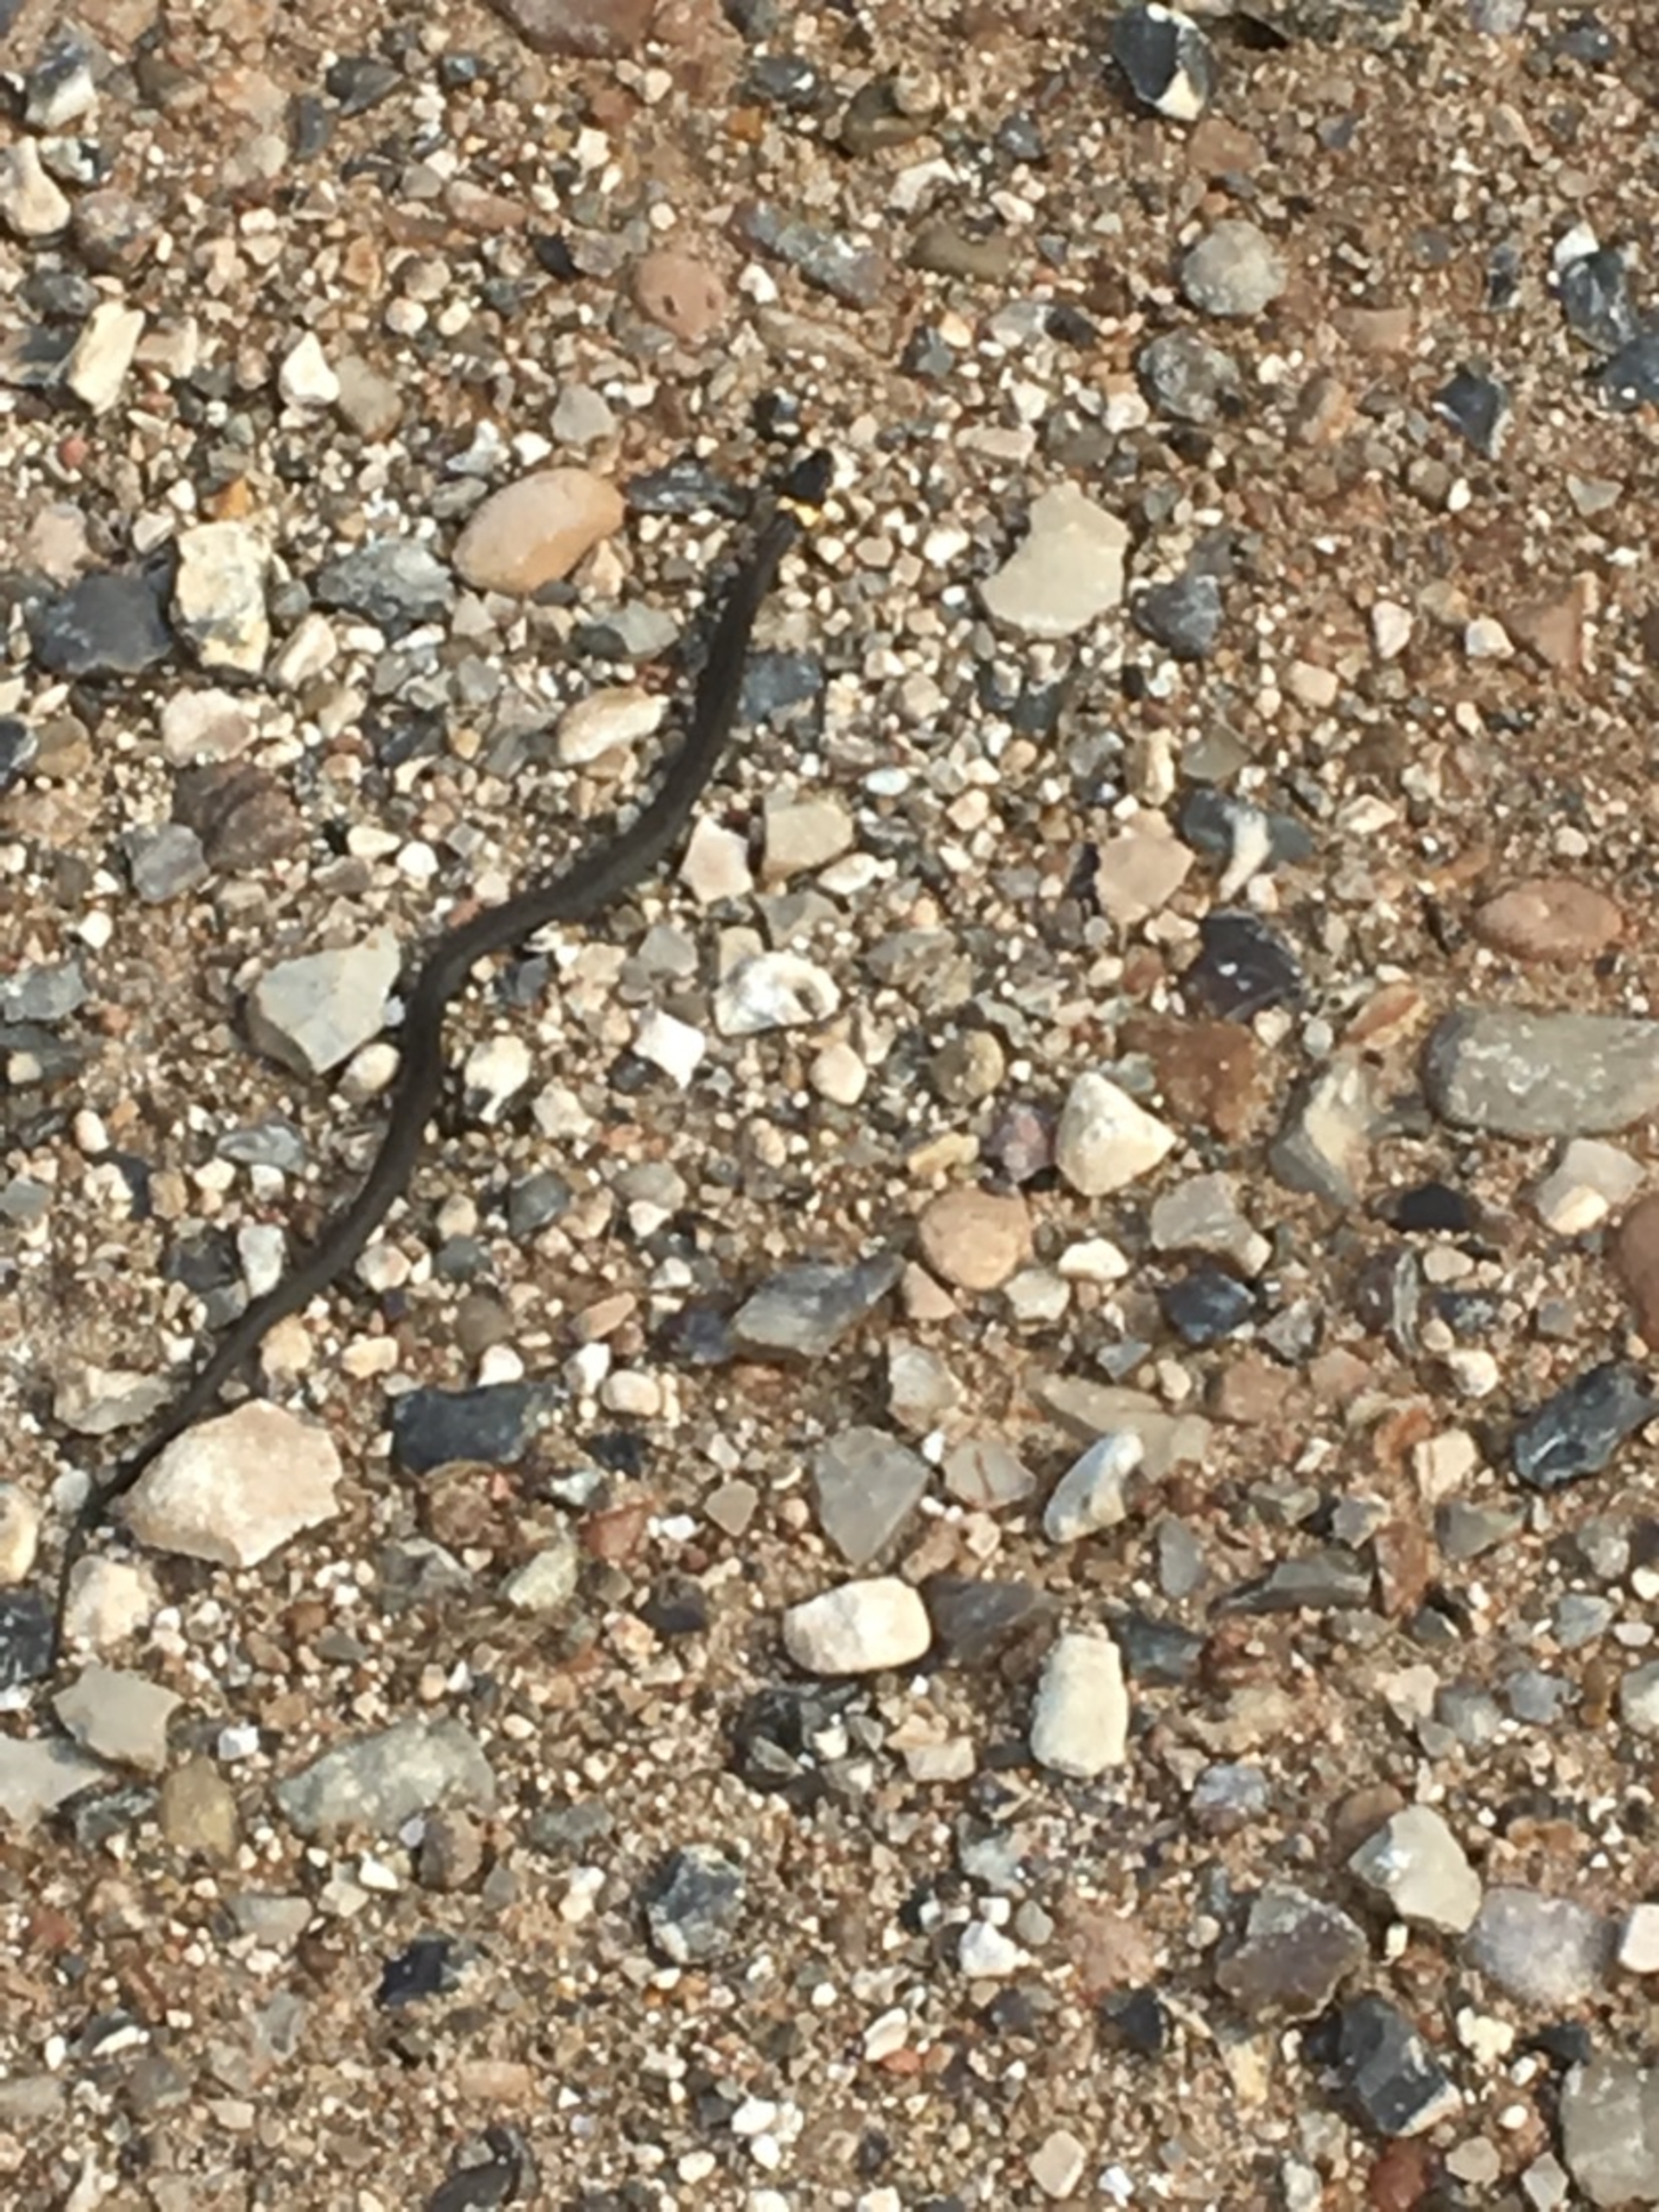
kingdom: Animalia
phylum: Chordata
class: Squamata
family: Colubridae
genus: Natrix
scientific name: Natrix natrix
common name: Snog
